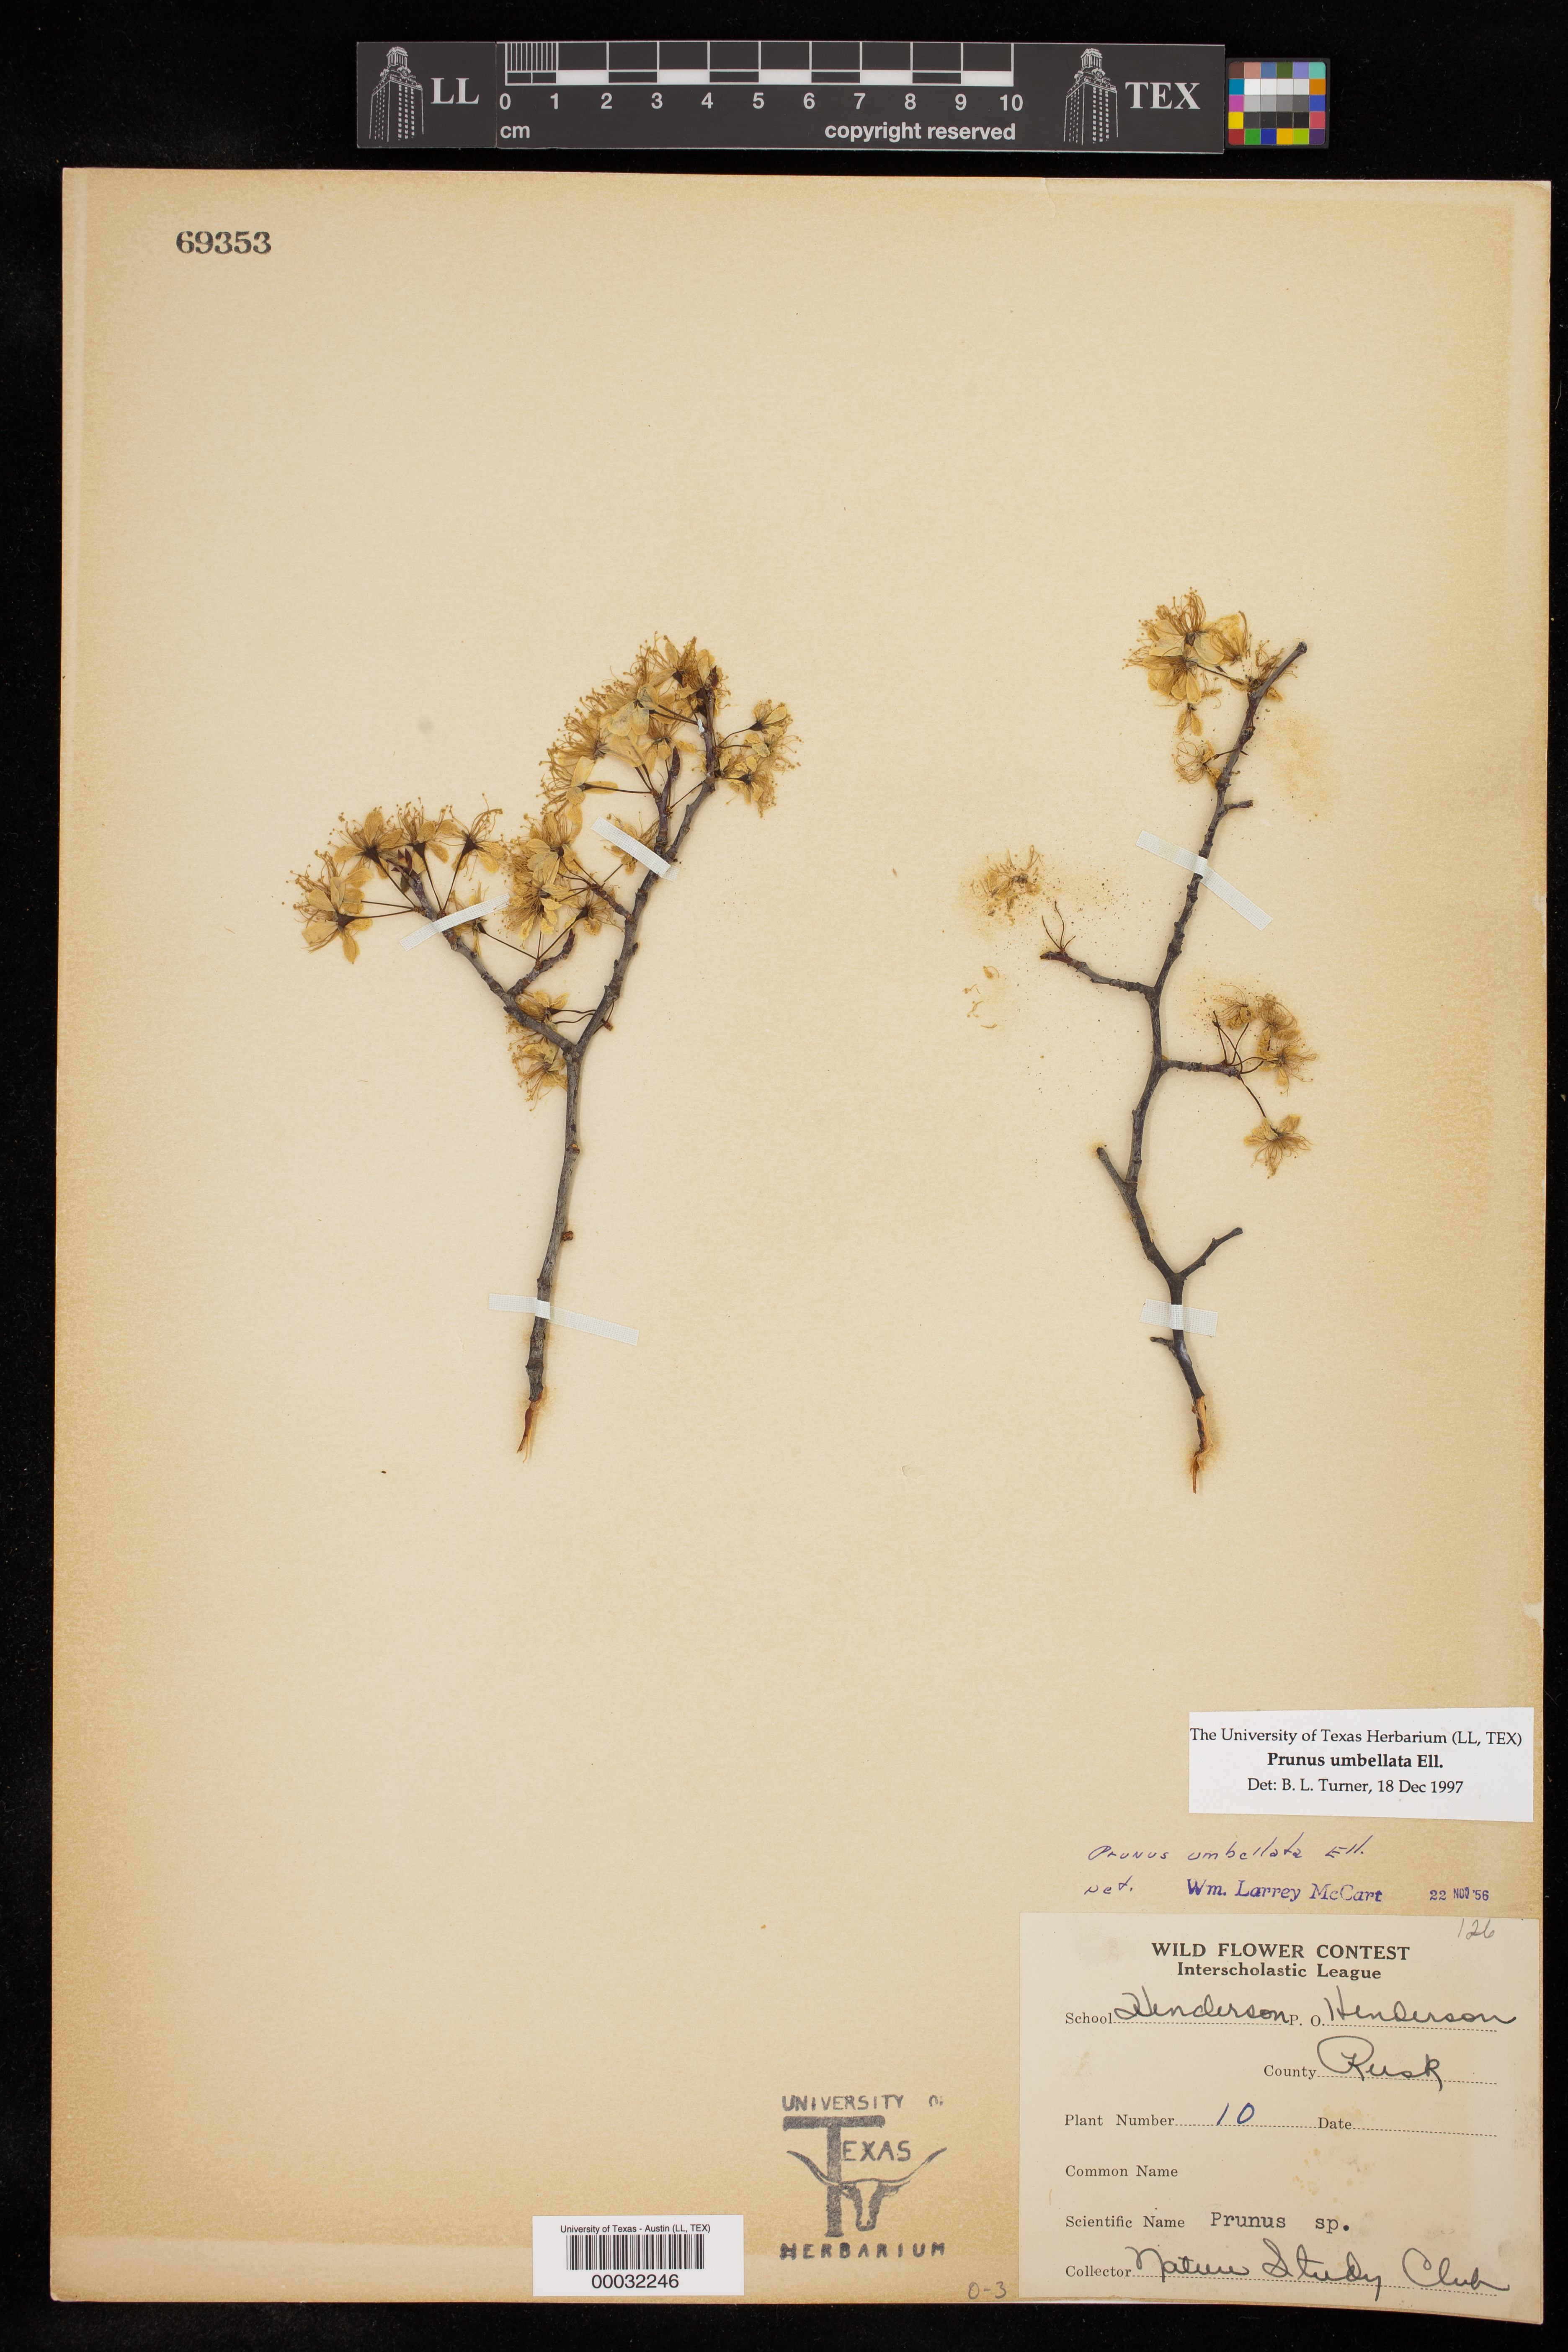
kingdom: Plantae
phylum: Tracheophyta
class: Magnoliopsida
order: Rosales
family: Rosaceae
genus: Prunus
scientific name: Prunus umbellata
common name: Allegheny plum
